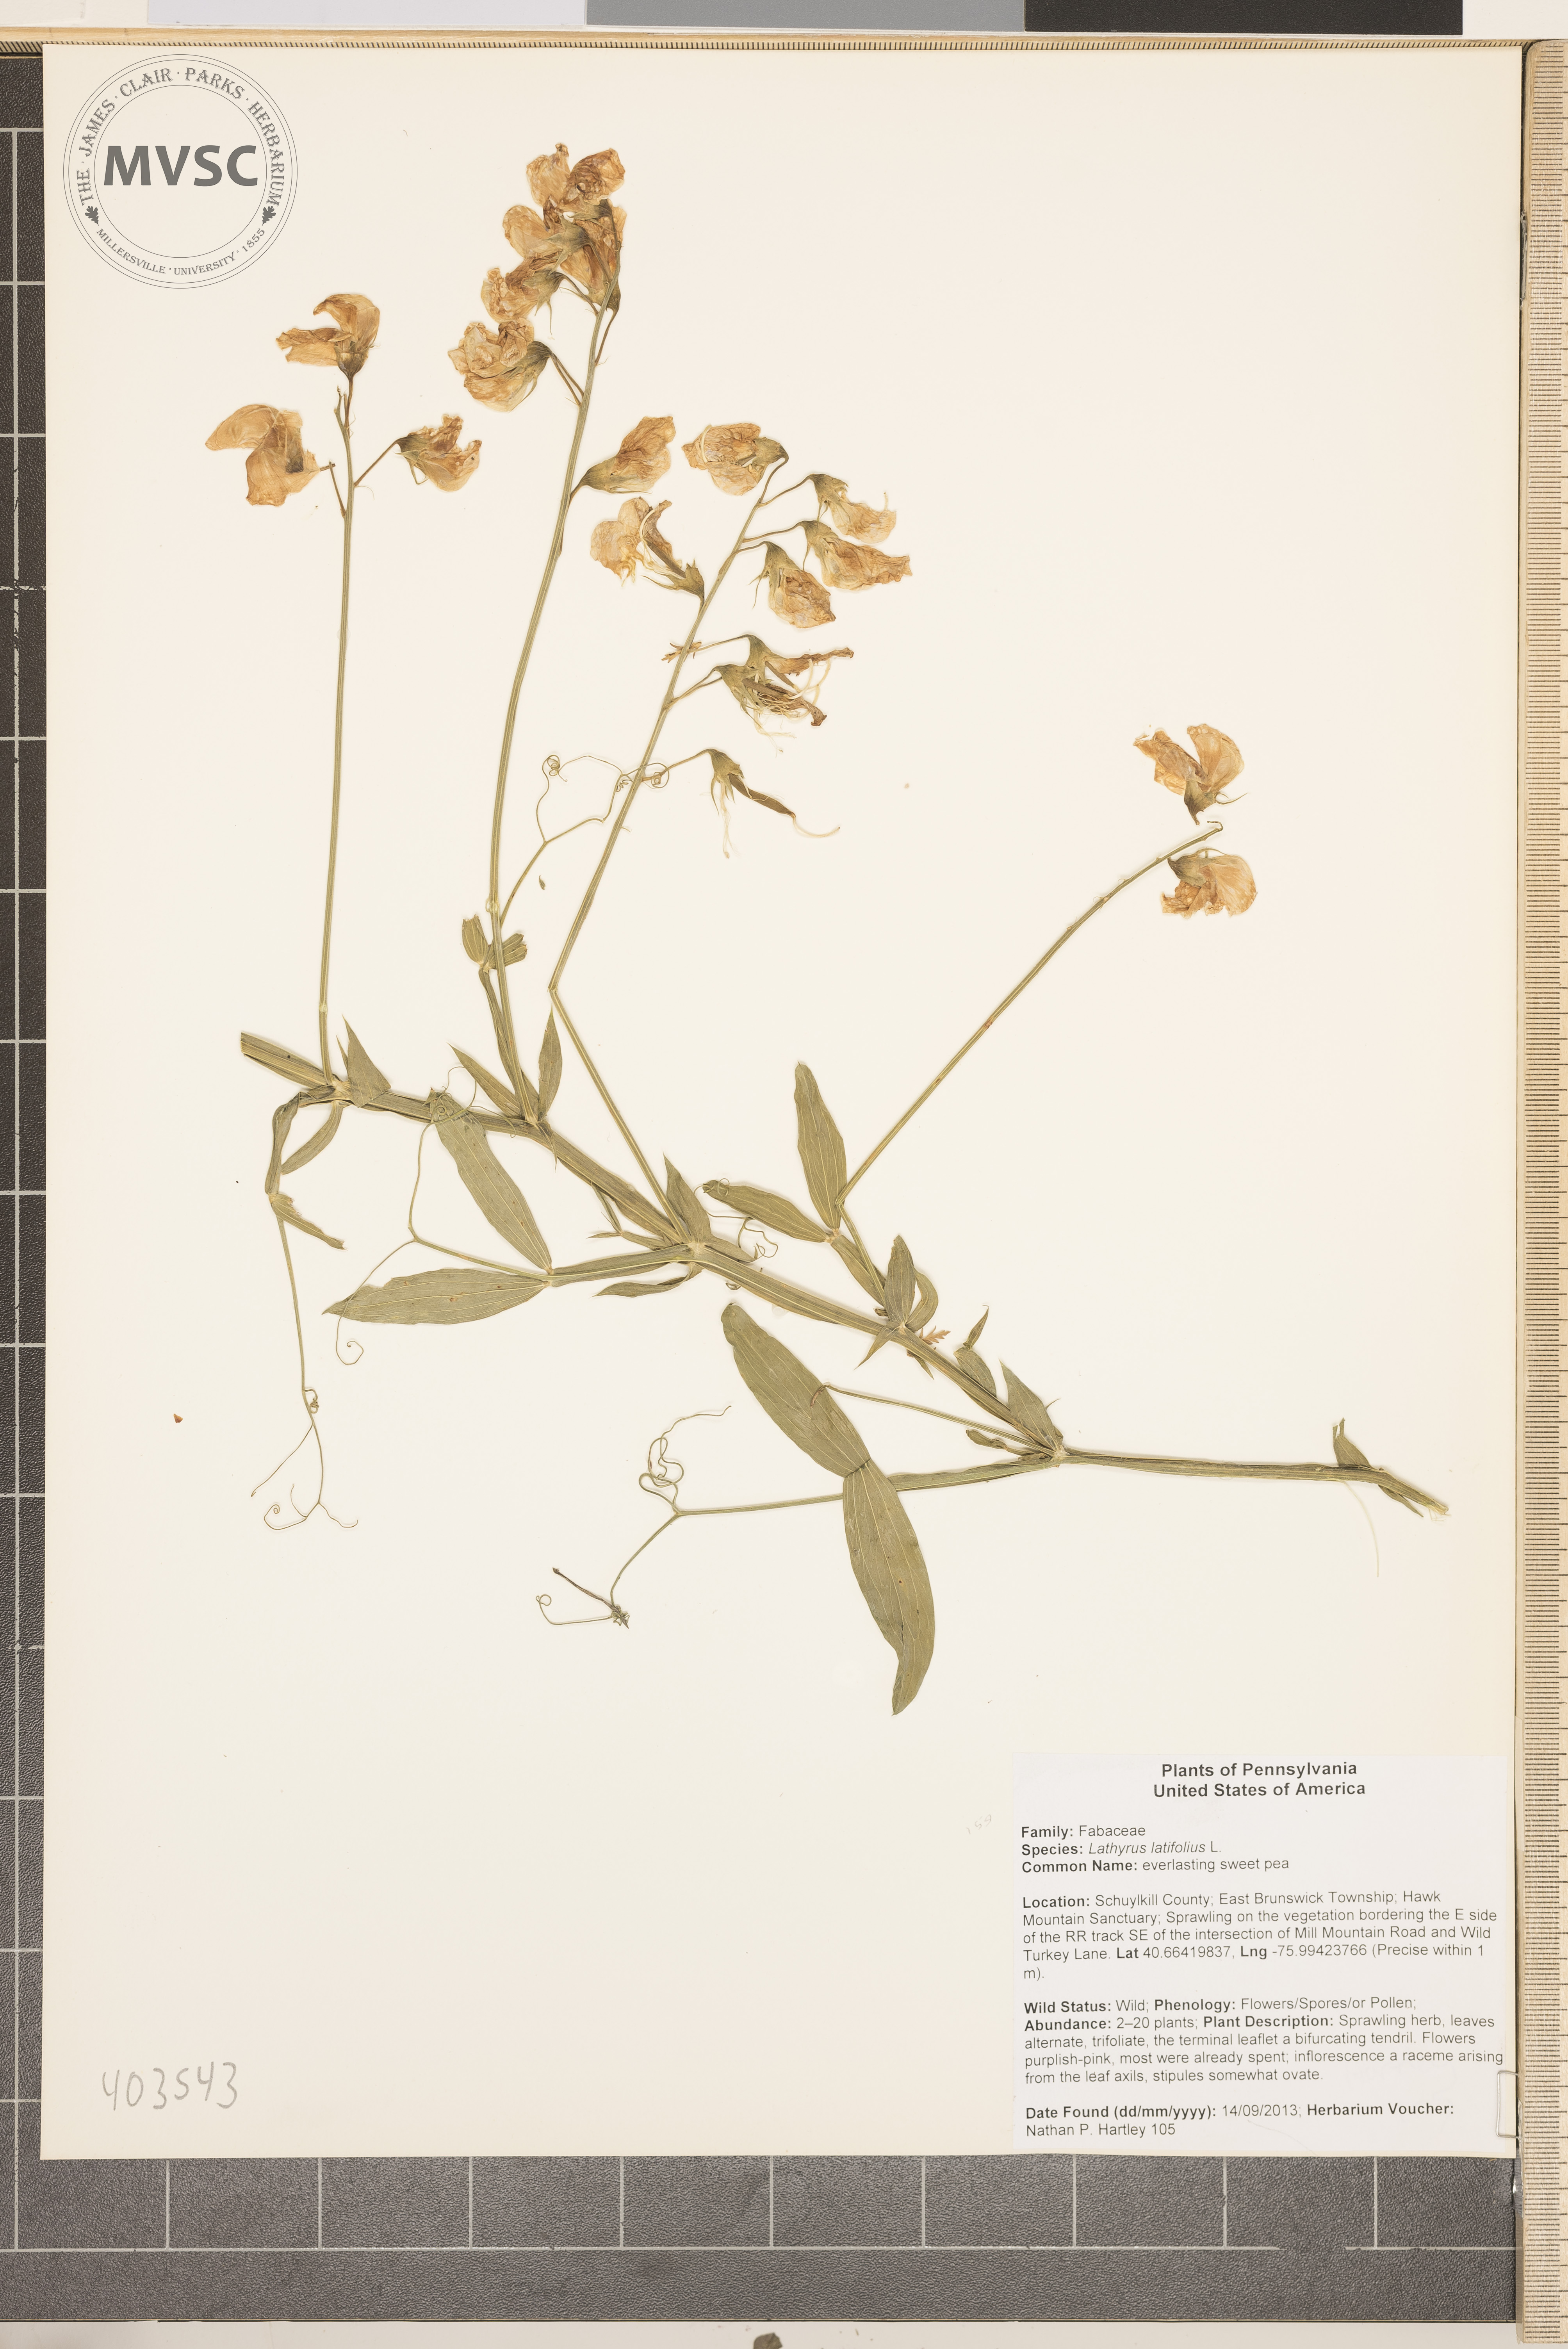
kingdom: Plantae
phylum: Tracheophyta
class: Magnoliopsida
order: Fabales
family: Fabaceae
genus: Lathyrus
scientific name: Lathyrus latifolius
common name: Perennial pea
